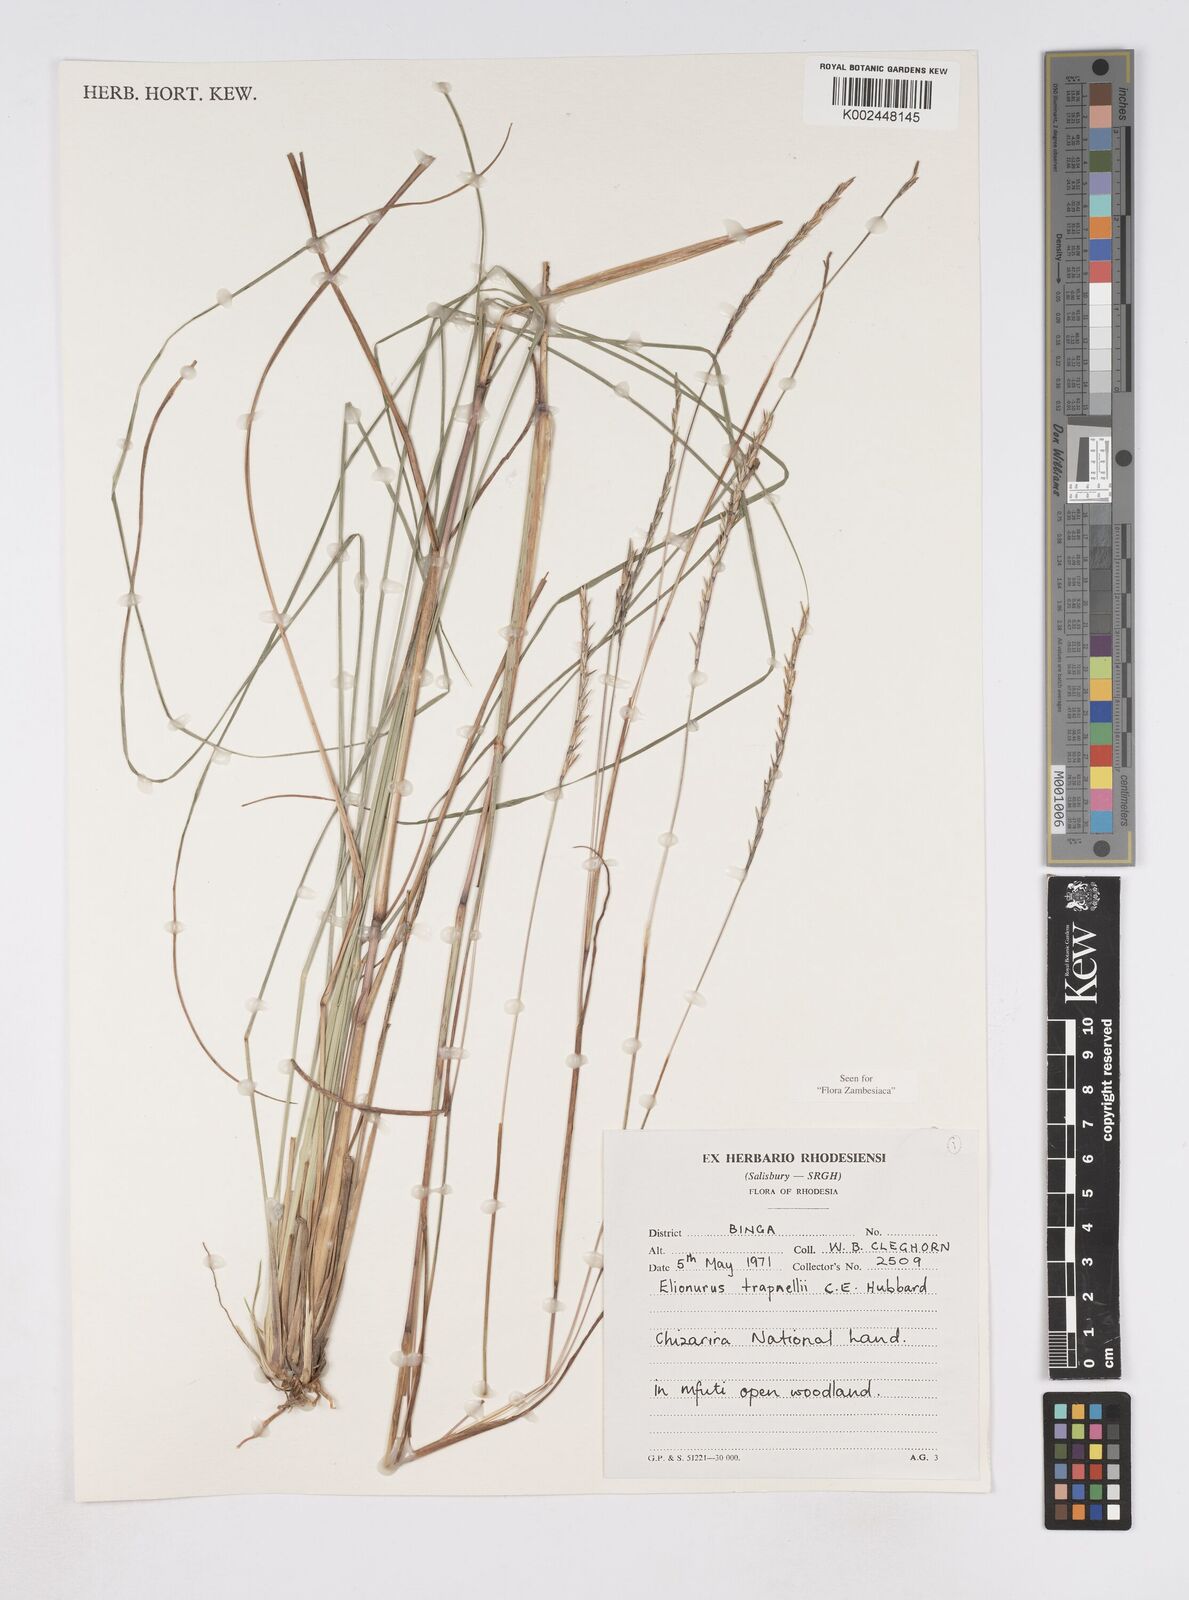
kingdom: Plantae
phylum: Tracheophyta
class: Liliopsida
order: Poales
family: Poaceae
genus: Elionurus
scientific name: Elionurus tripsacoides
